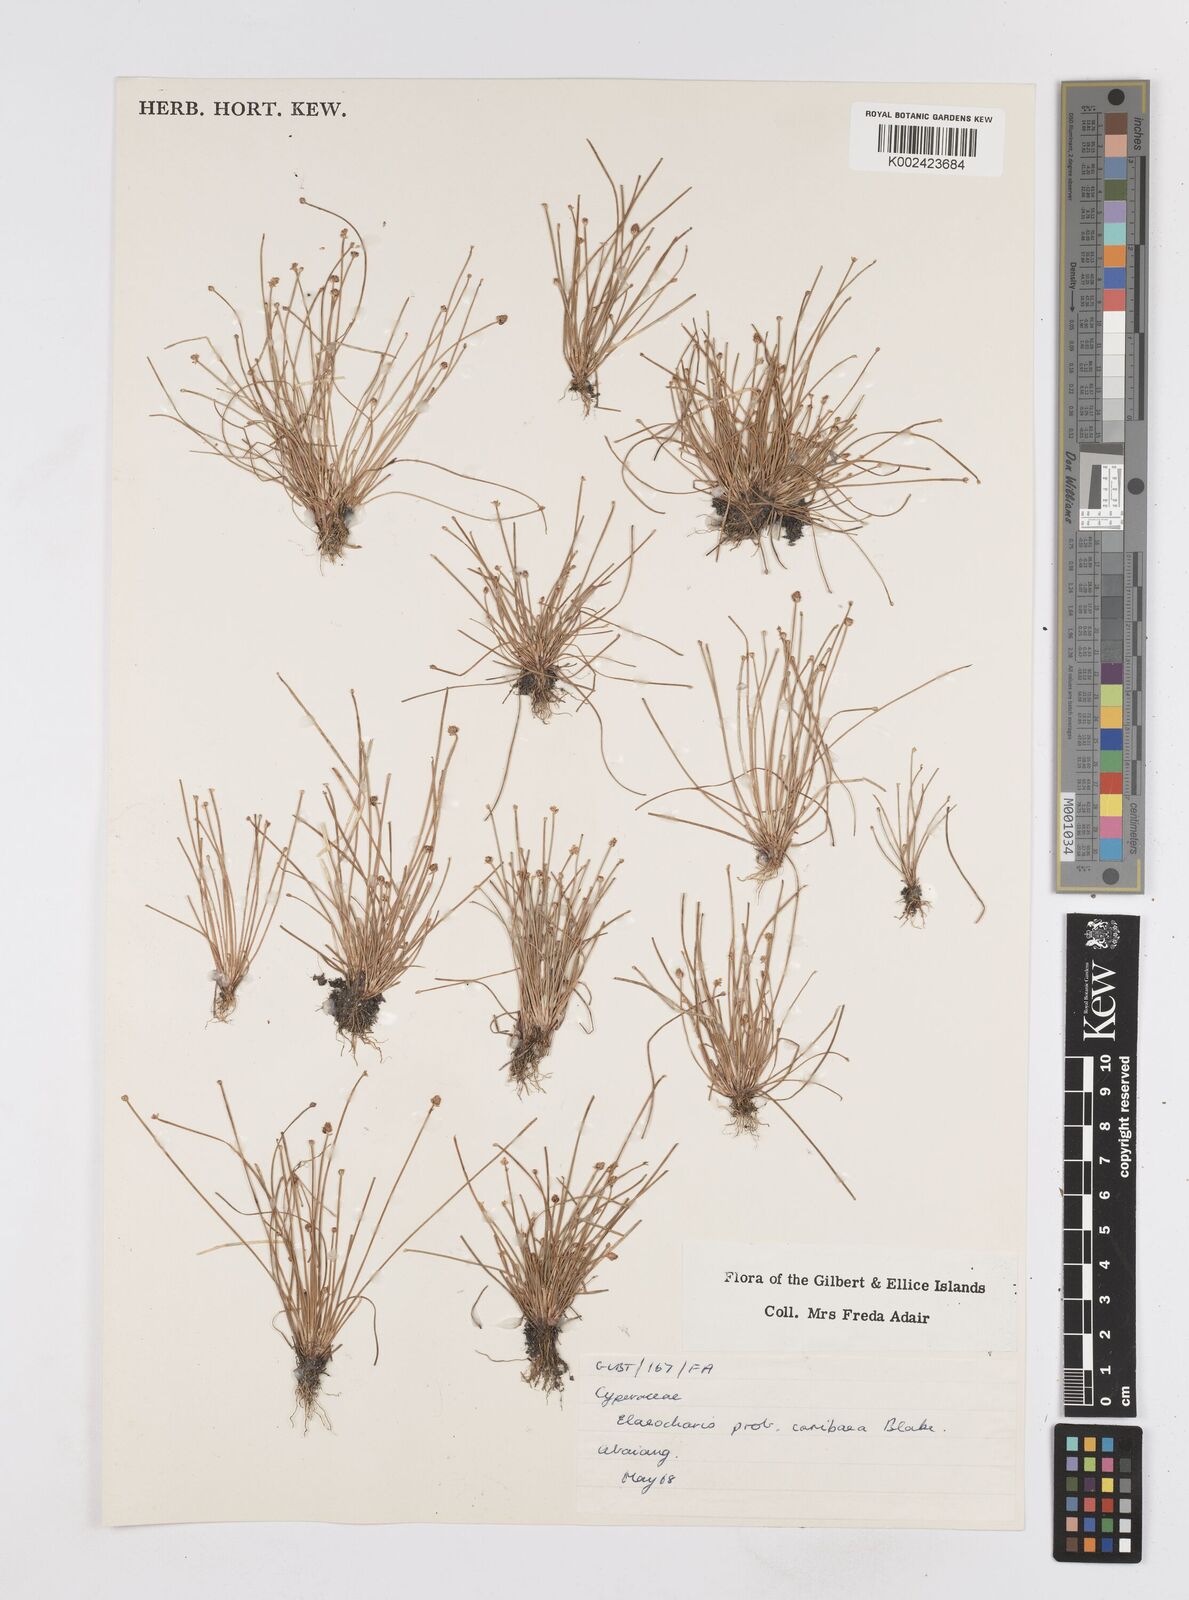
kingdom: Plantae
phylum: Tracheophyta
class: Liliopsida
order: Poales
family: Cyperaceae
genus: Eleocharis
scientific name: Eleocharis
